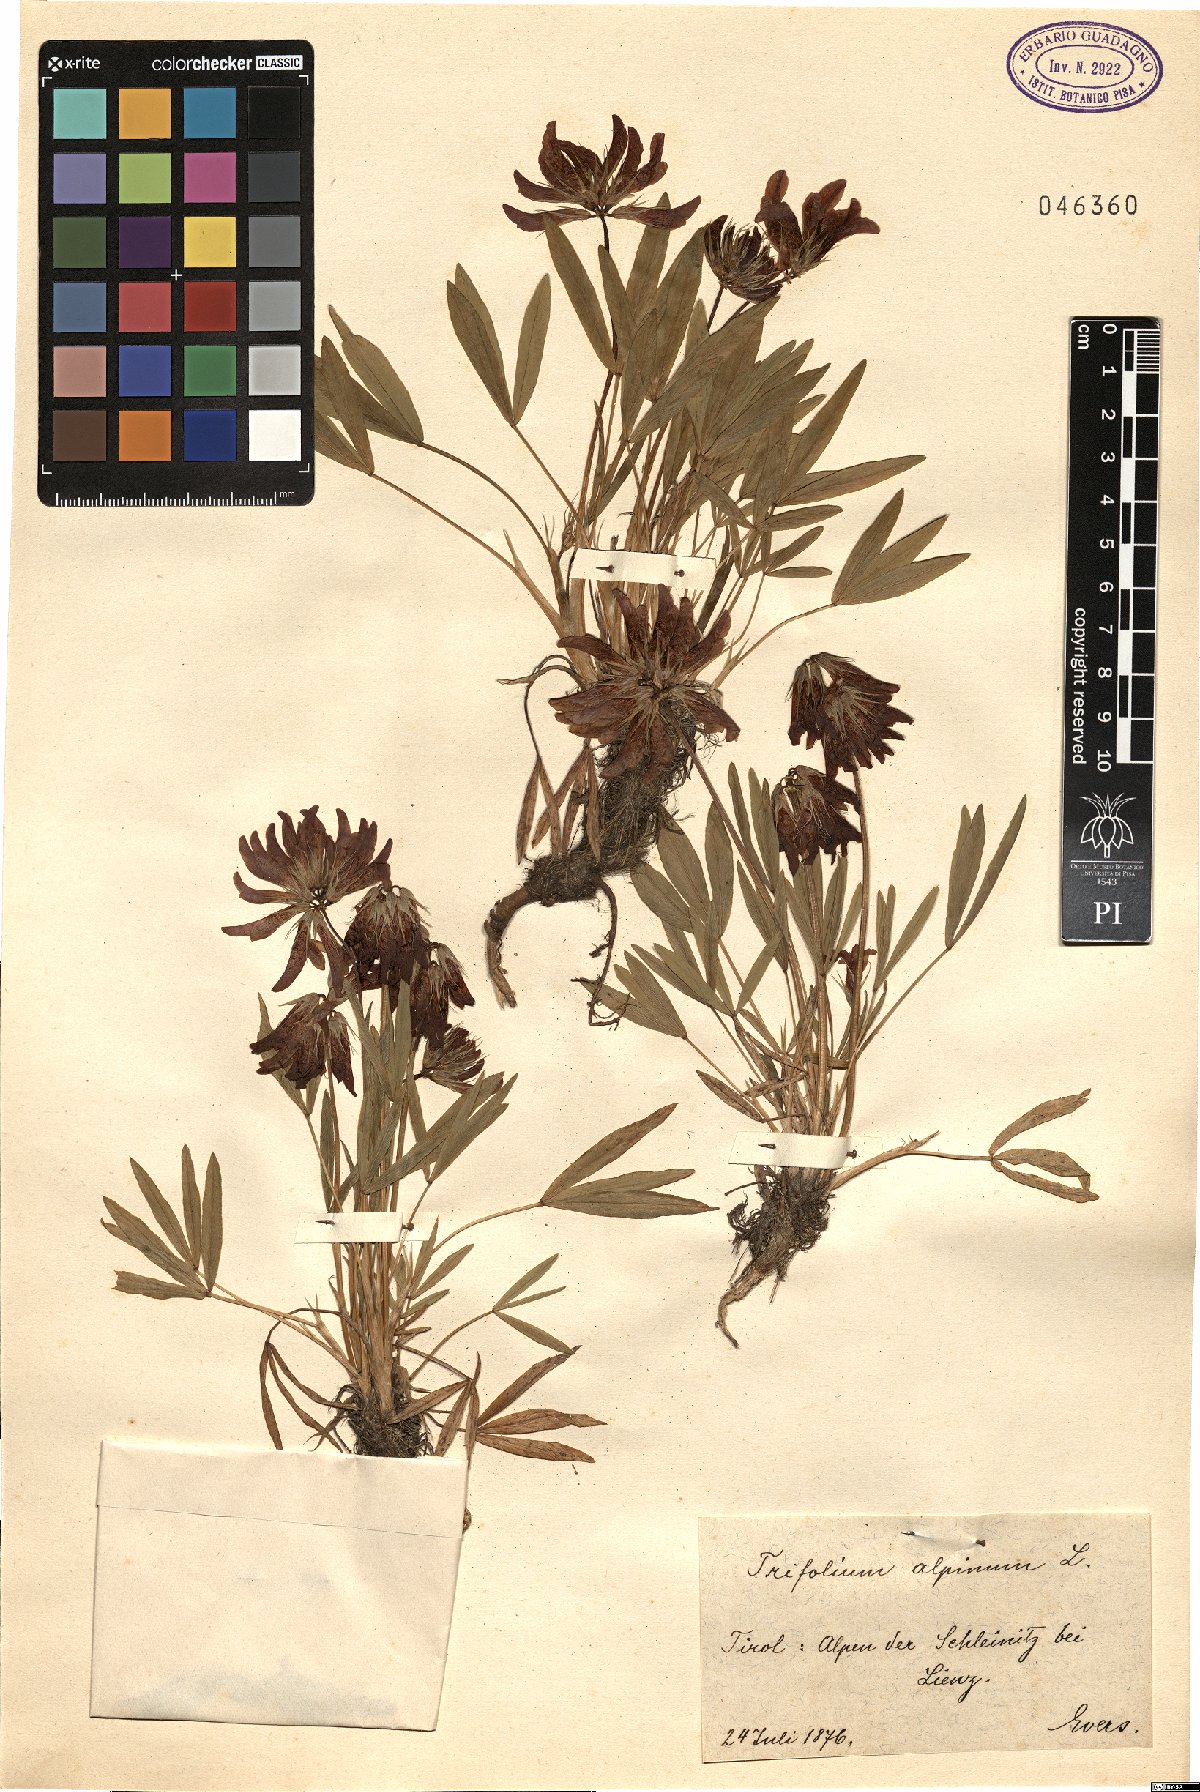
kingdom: Plantae
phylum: Tracheophyta
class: Magnoliopsida
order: Fabales
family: Fabaceae
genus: Trifolium
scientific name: Trifolium alpinum
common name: Alpine clover
